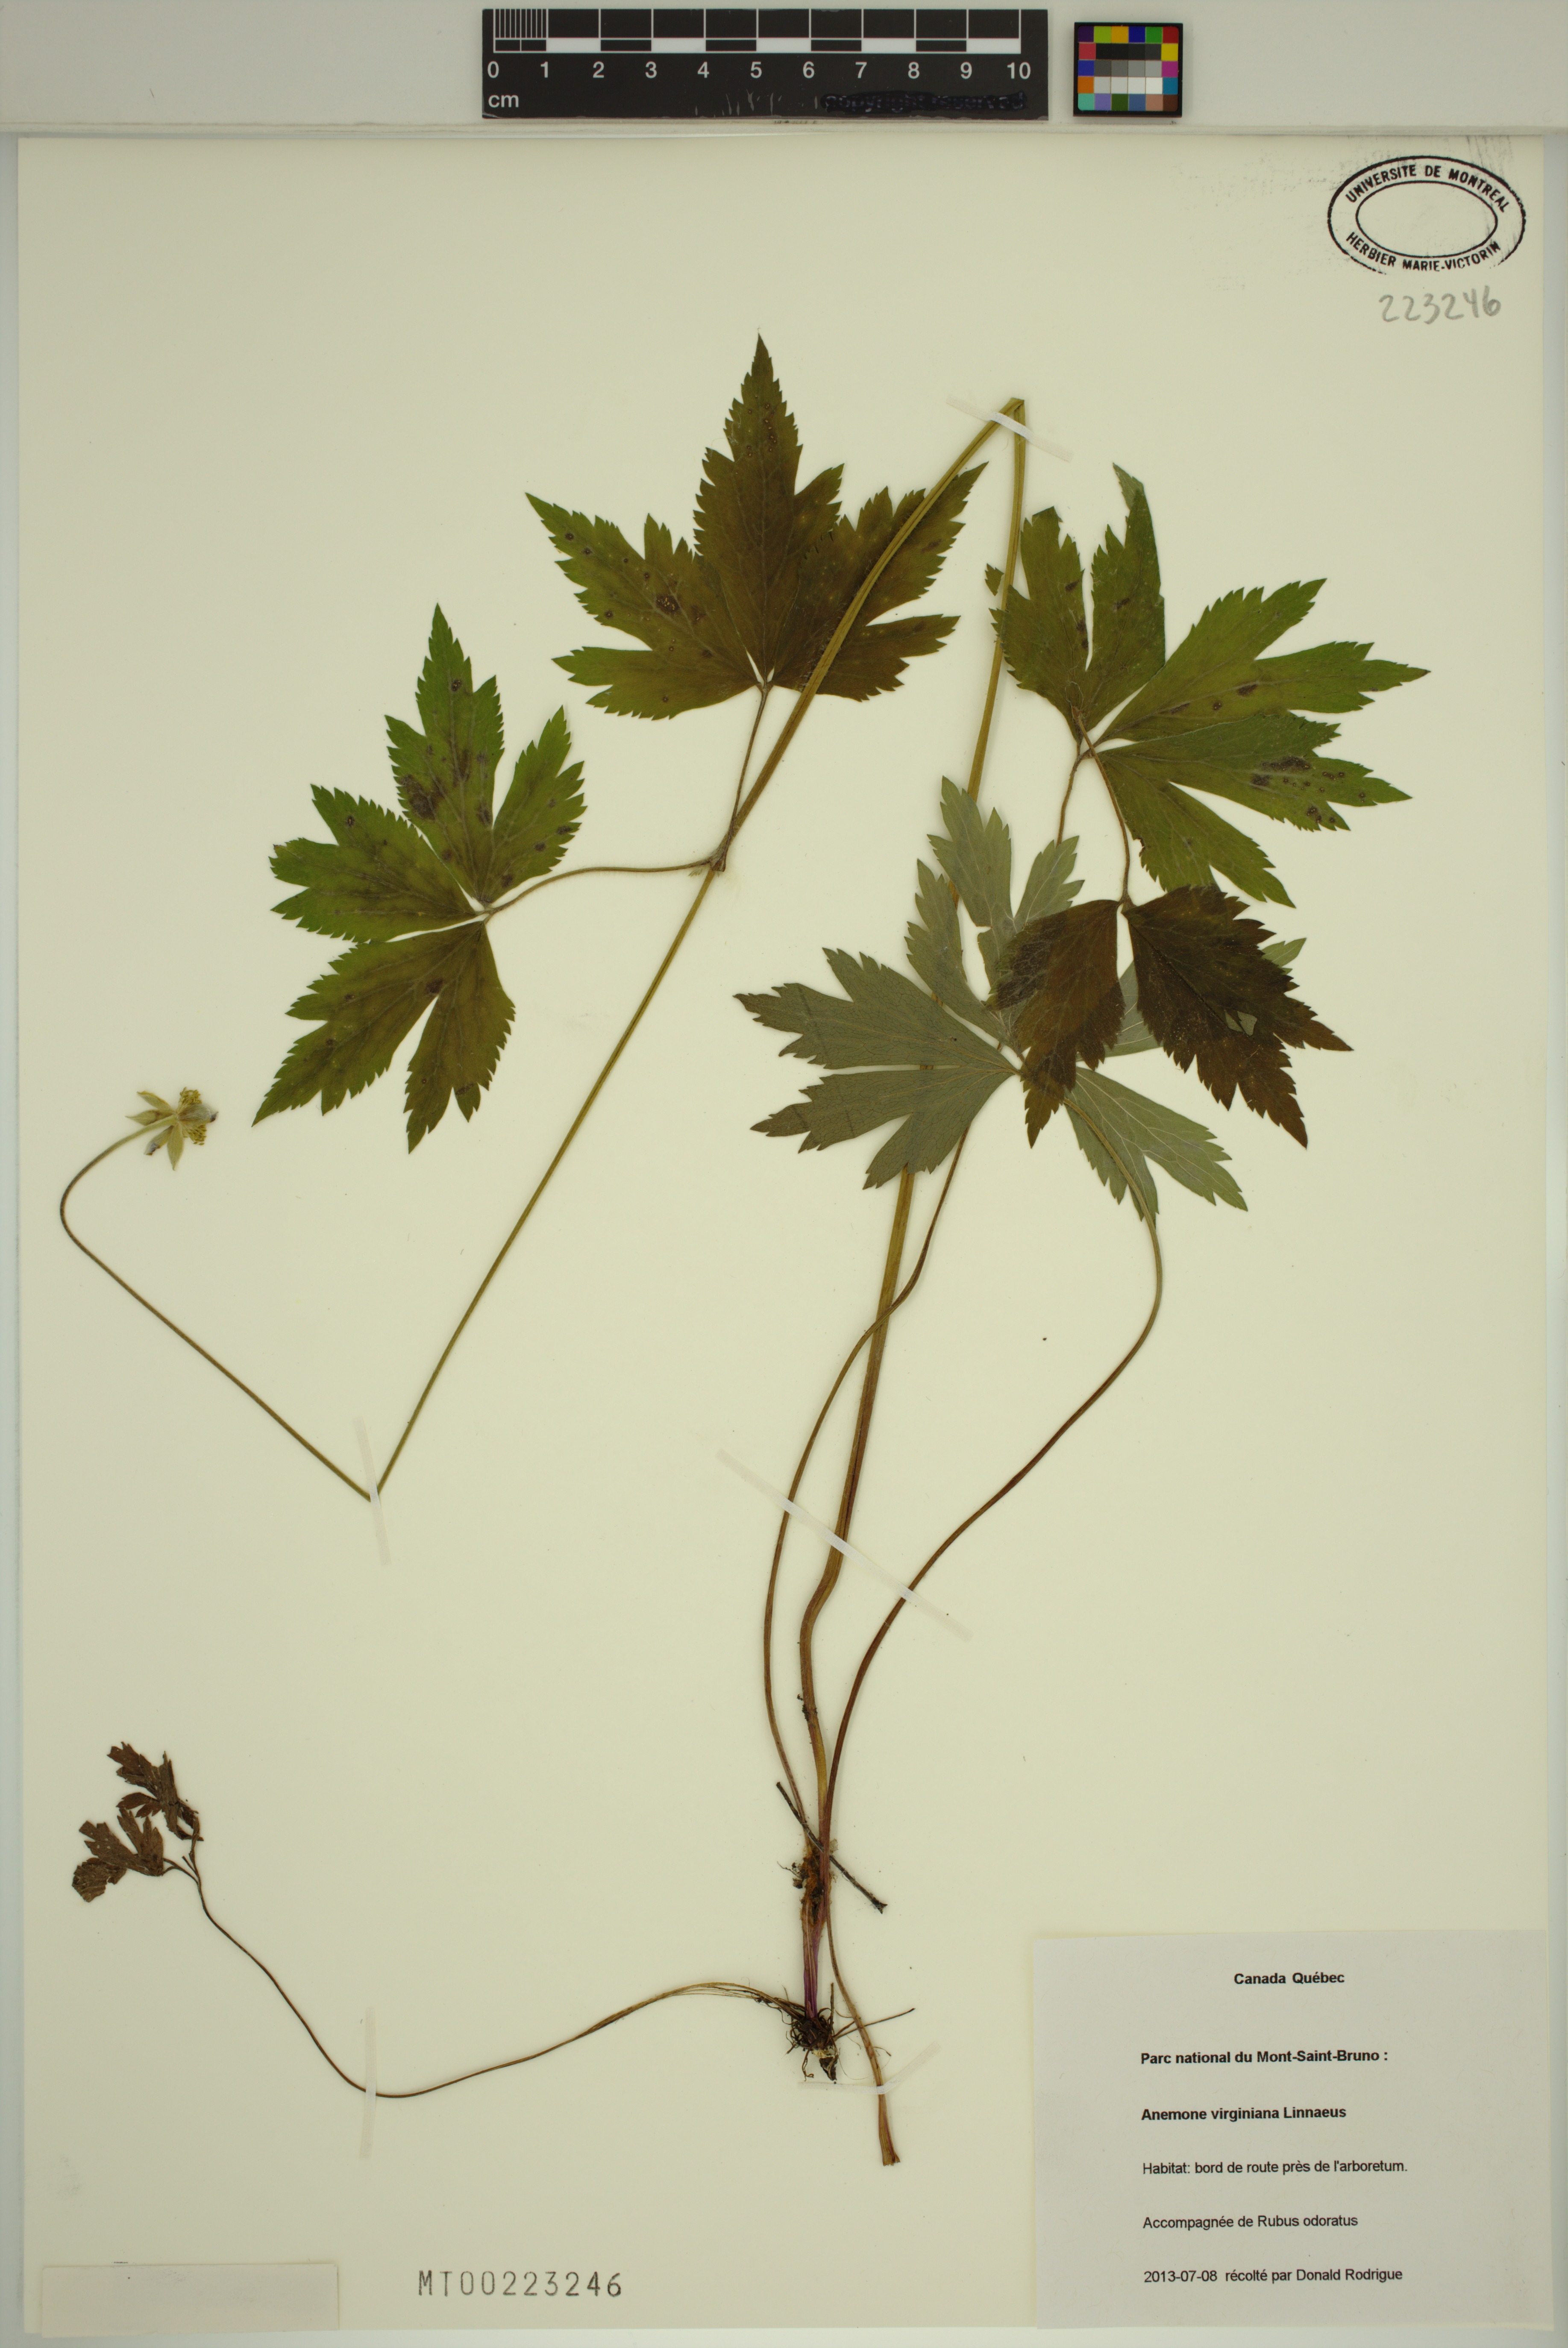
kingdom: Plantae
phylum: Tracheophyta
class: Magnoliopsida
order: Ranunculales
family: Ranunculaceae
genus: Anemone
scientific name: Anemone virginiana
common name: Tall anemone
